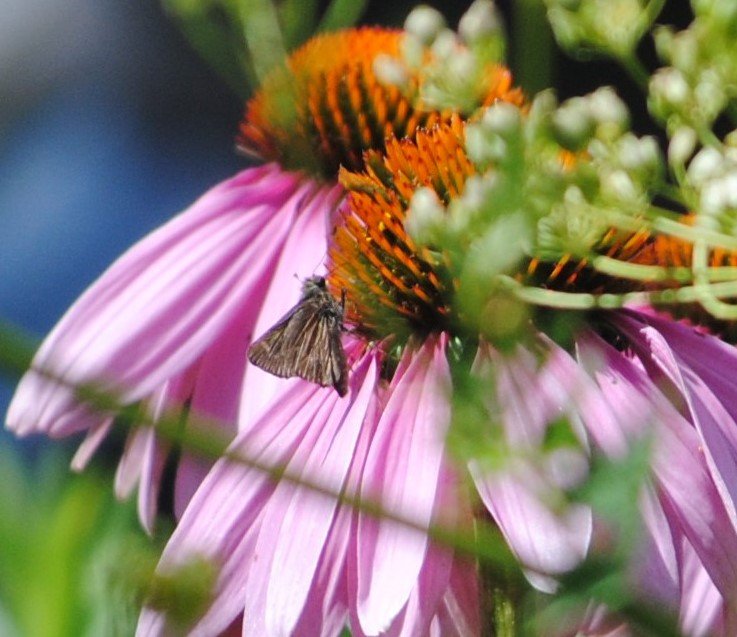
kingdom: Animalia
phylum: Arthropoda
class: Insecta
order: Lepidoptera
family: Hesperiidae
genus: Polites
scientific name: Polites egeremet
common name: Northern Broken-Dash
